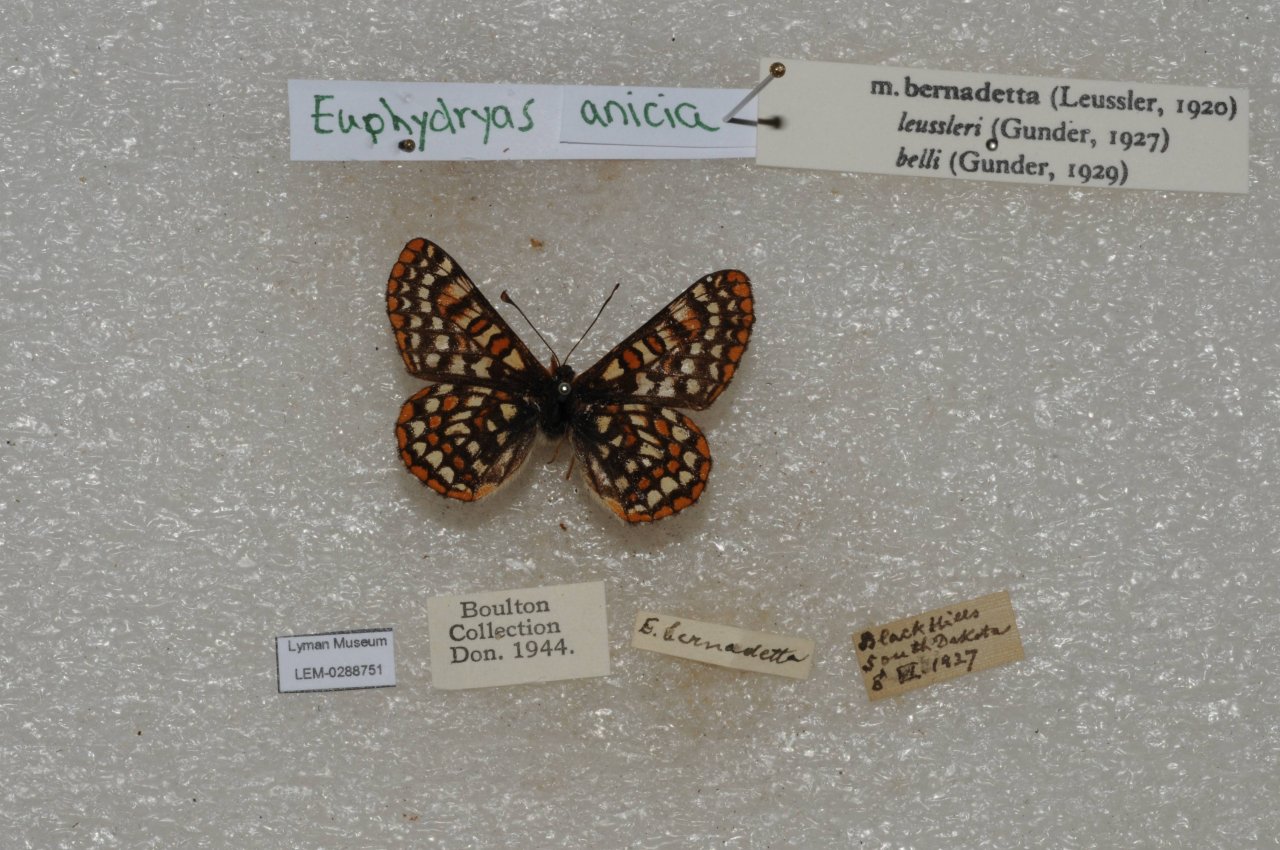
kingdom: Animalia
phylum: Arthropoda
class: Insecta
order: Lepidoptera
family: Nymphalidae
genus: Occidryas
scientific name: Occidryas anicia
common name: Anicia Checkerspot
